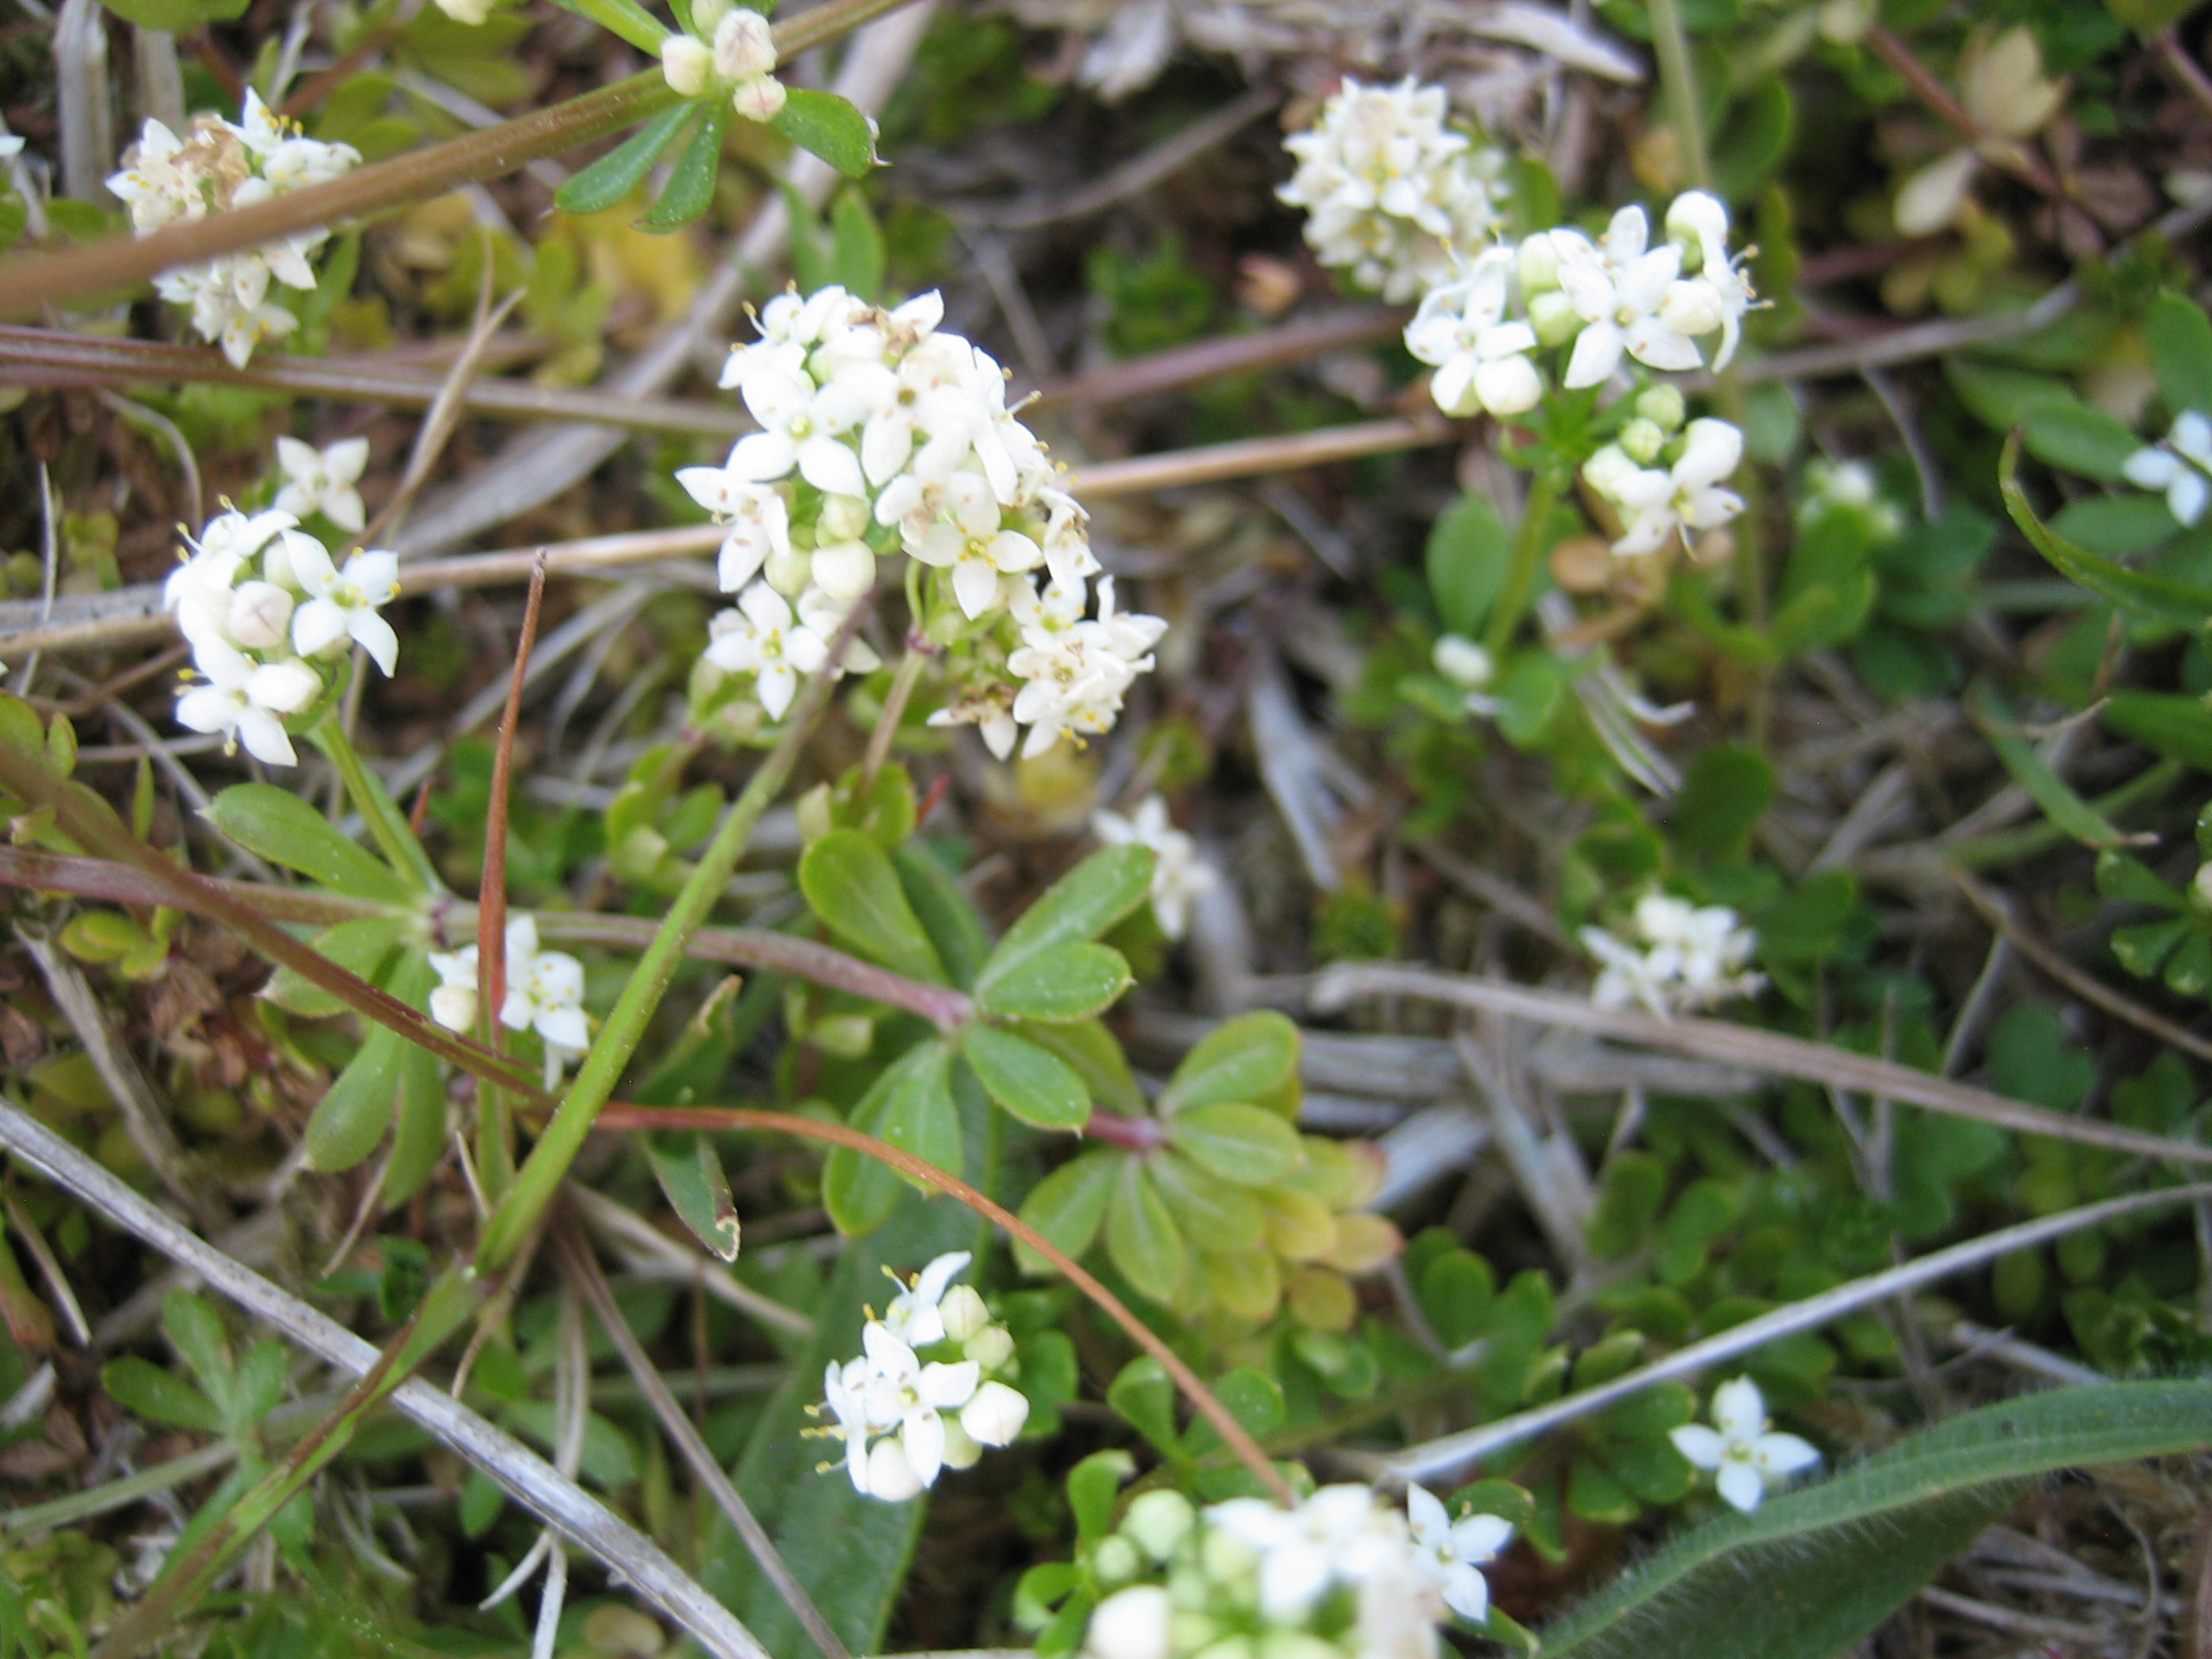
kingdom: Plantae
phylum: Tracheophyta
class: Magnoliopsida
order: Gentianales
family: Rubiaceae
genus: Galium
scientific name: Galium saxatile
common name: Lyng-snerre
